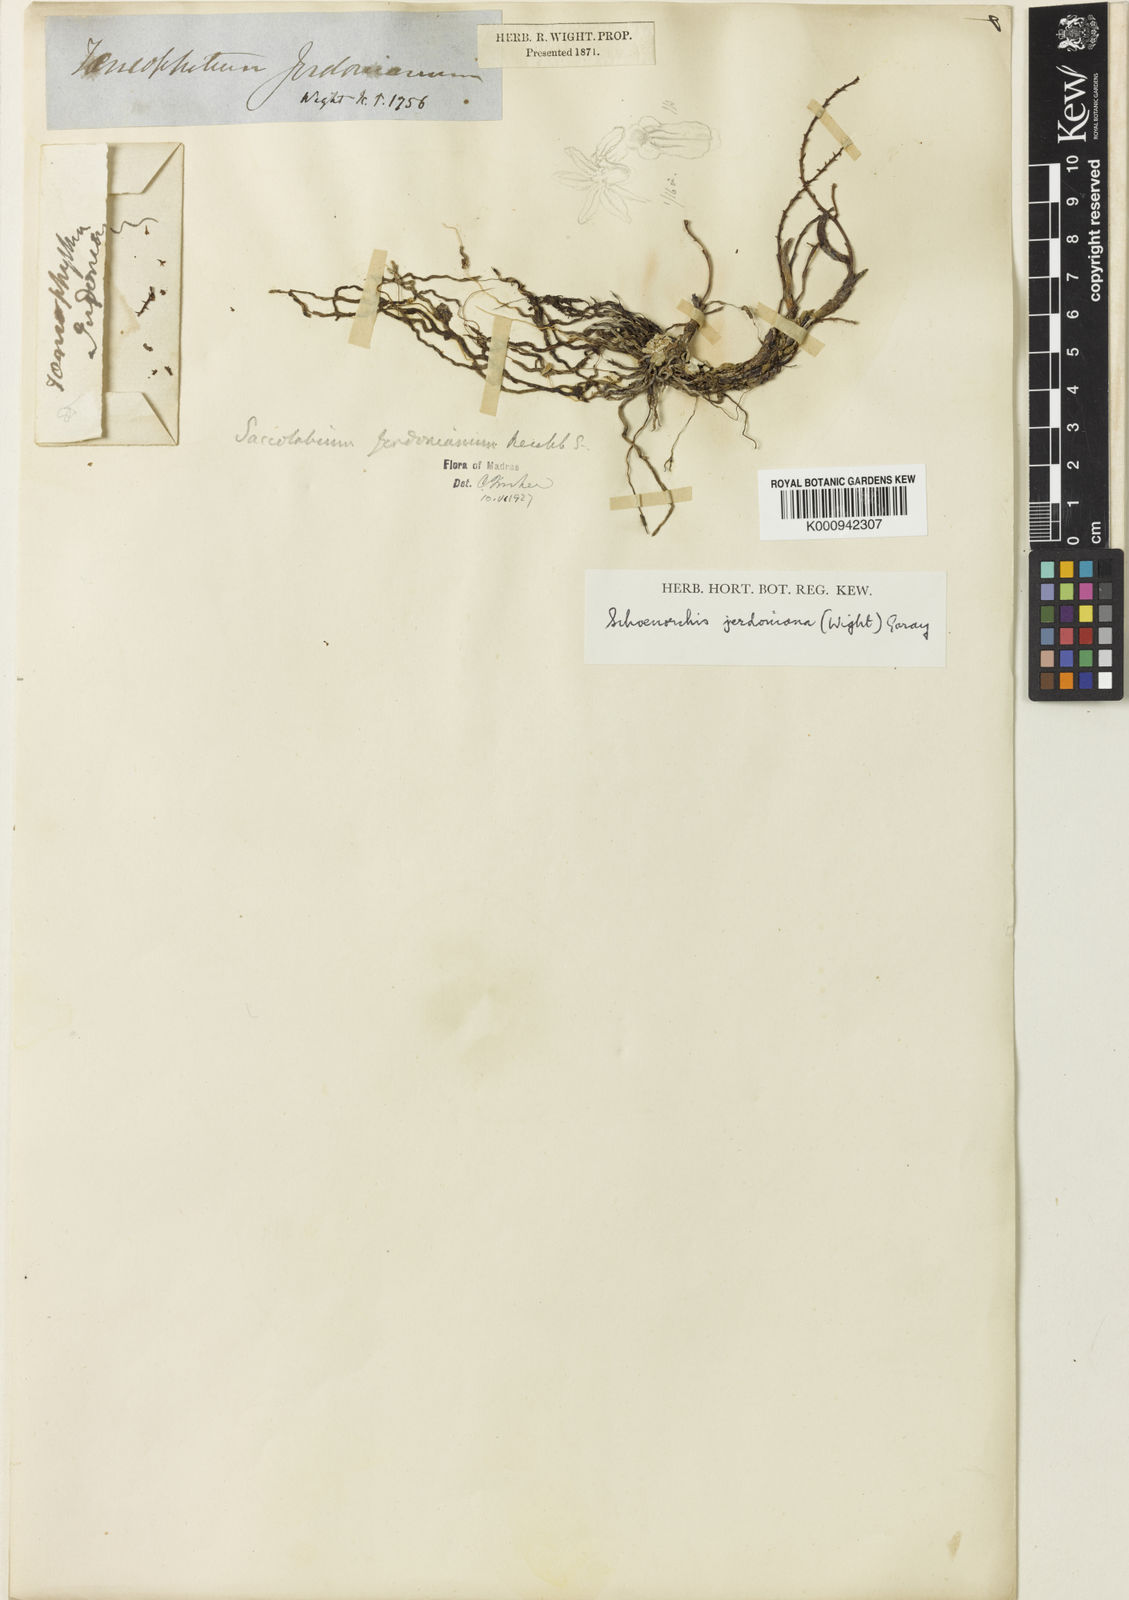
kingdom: Plantae
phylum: Tracheophyta
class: Liliopsida
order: Asparagales
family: Orchidaceae
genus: Schoenorchis
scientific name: Schoenorchis jerdoniana
